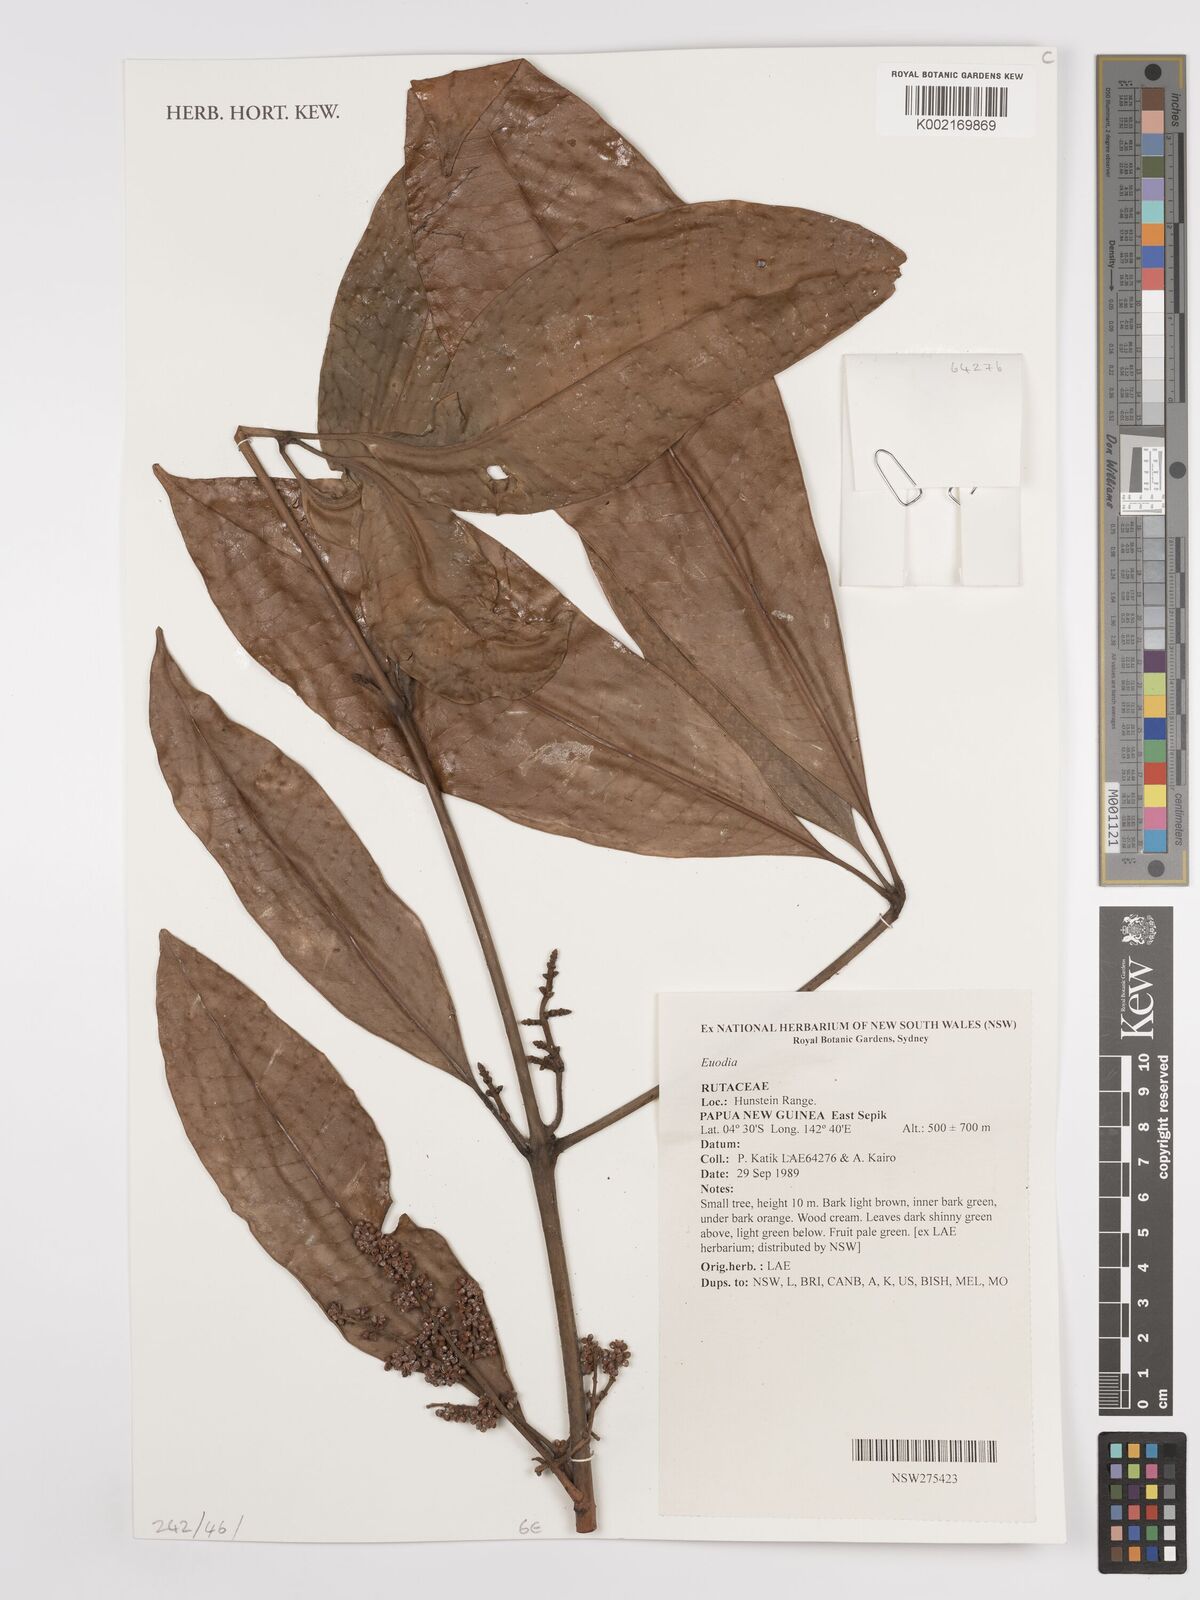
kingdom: Plantae
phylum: Tracheophyta
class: Magnoliopsida
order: Sapindales
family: Rutaceae
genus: Euodia
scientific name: Euodia
